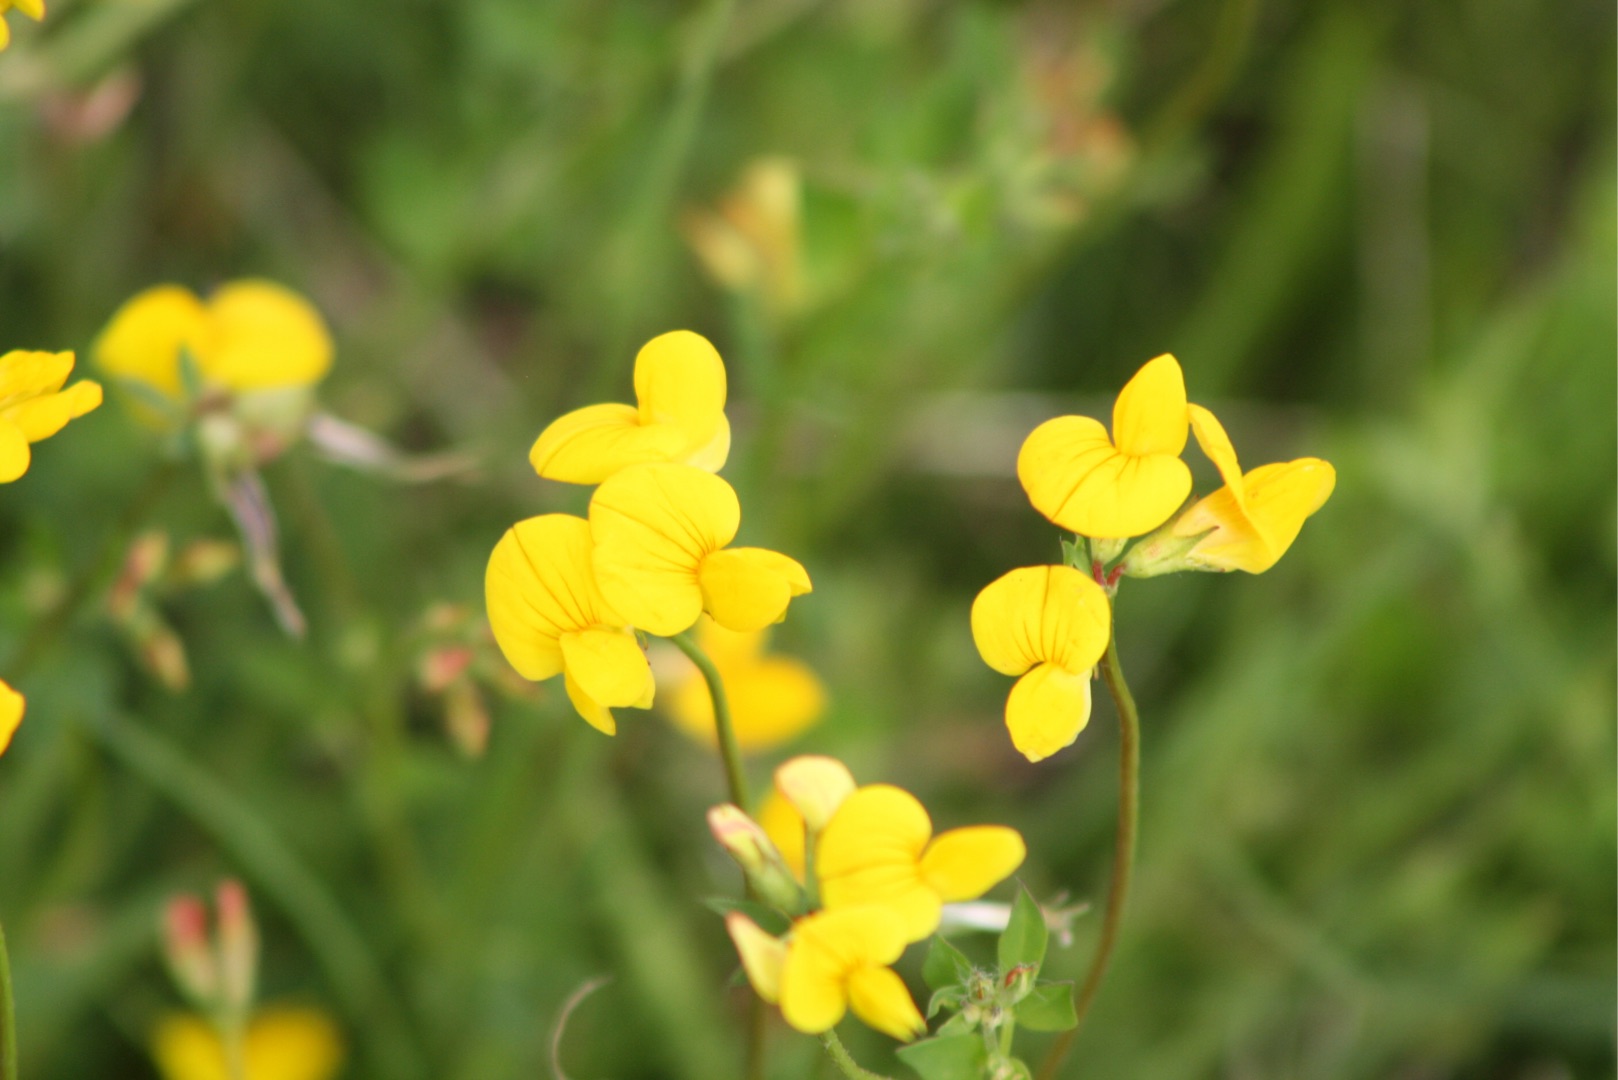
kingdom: Plantae
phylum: Tracheophyta
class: Magnoliopsida
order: Fabales
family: Fabaceae
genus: Lotus
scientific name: Lotus corniculatus
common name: Almindelig kællingetand
